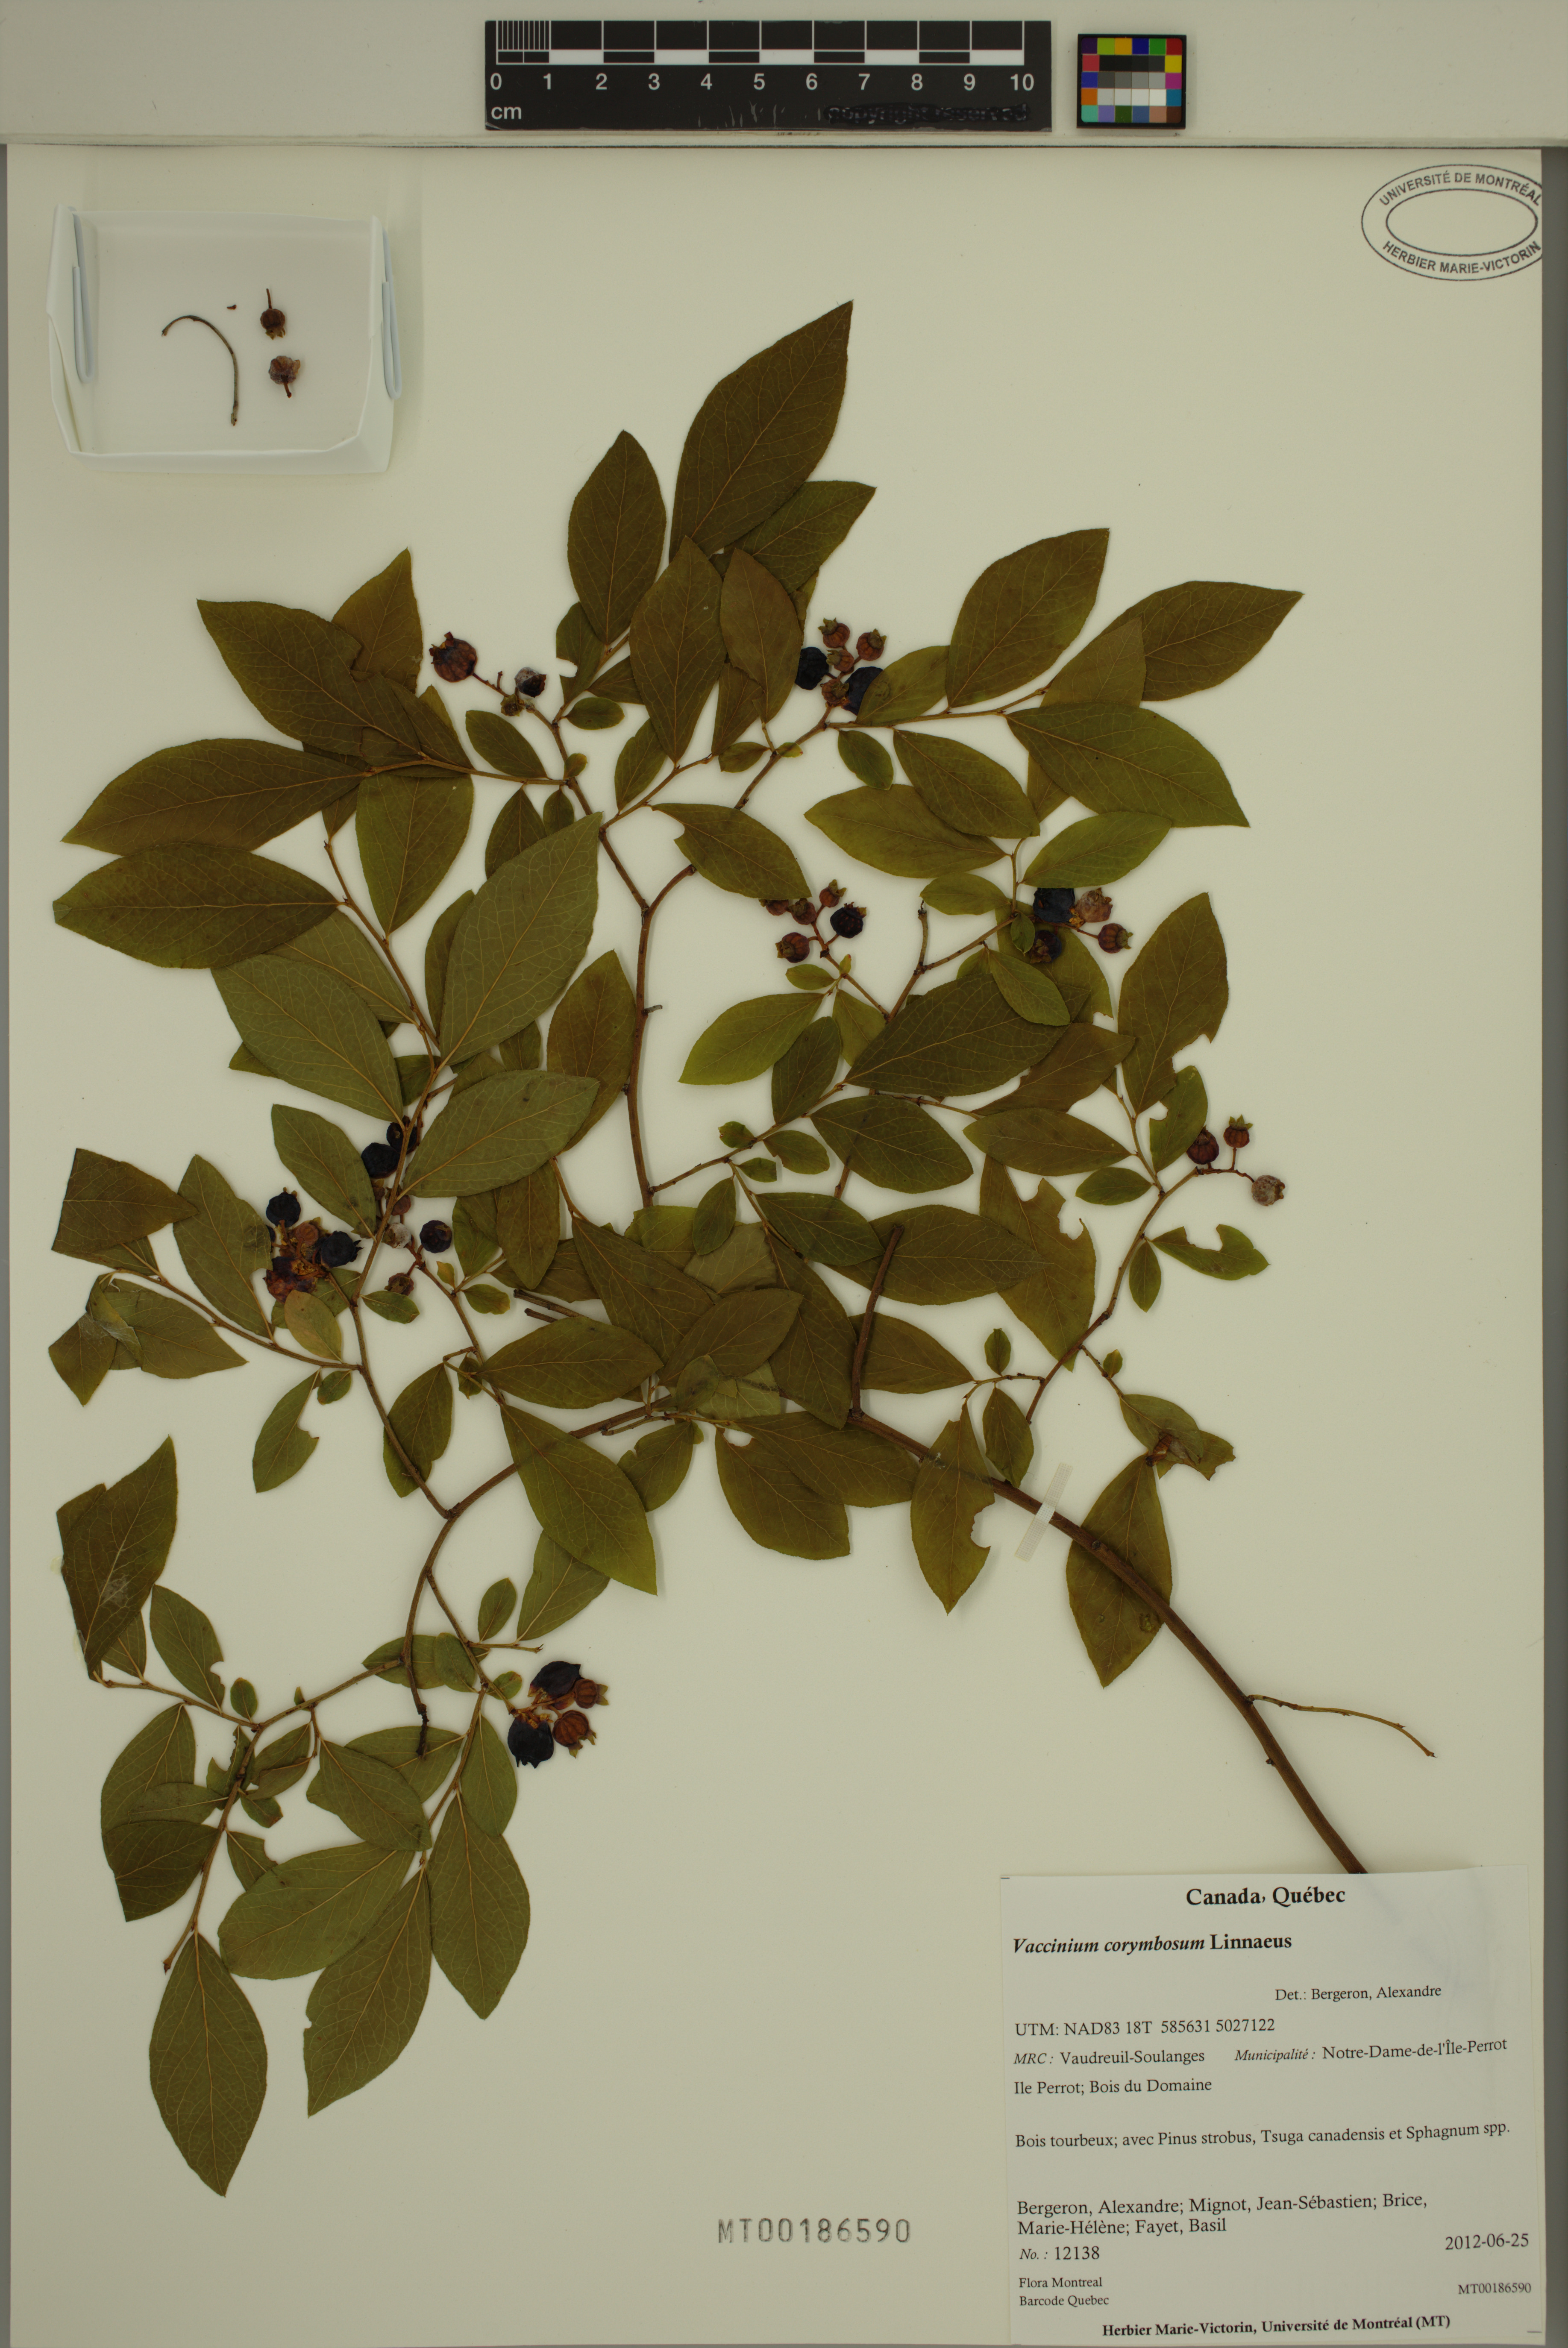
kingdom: Plantae
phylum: Tracheophyta
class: Magnoliopsida
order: Ericales
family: Ericaceae
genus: Vaccinium
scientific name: Vaccinium corymbosum
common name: Blueberry
